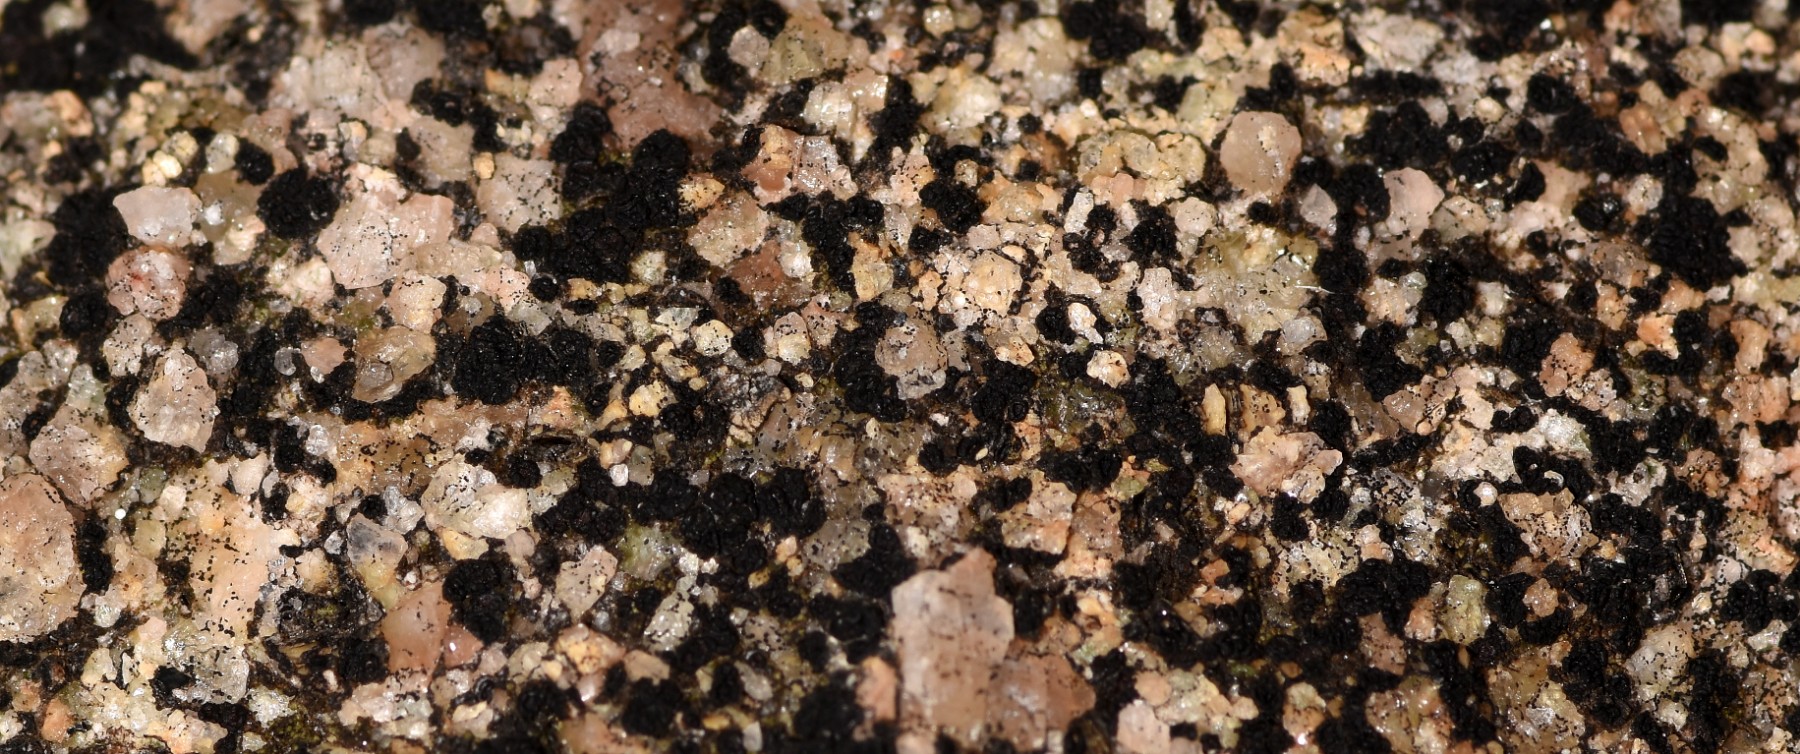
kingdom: Fungi
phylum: Ascomycota
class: Lecanoromycetes
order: Acarosporales
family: Acarosporaceae
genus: Acarospora
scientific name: Acarospora privigna
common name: sort foldekantlav
